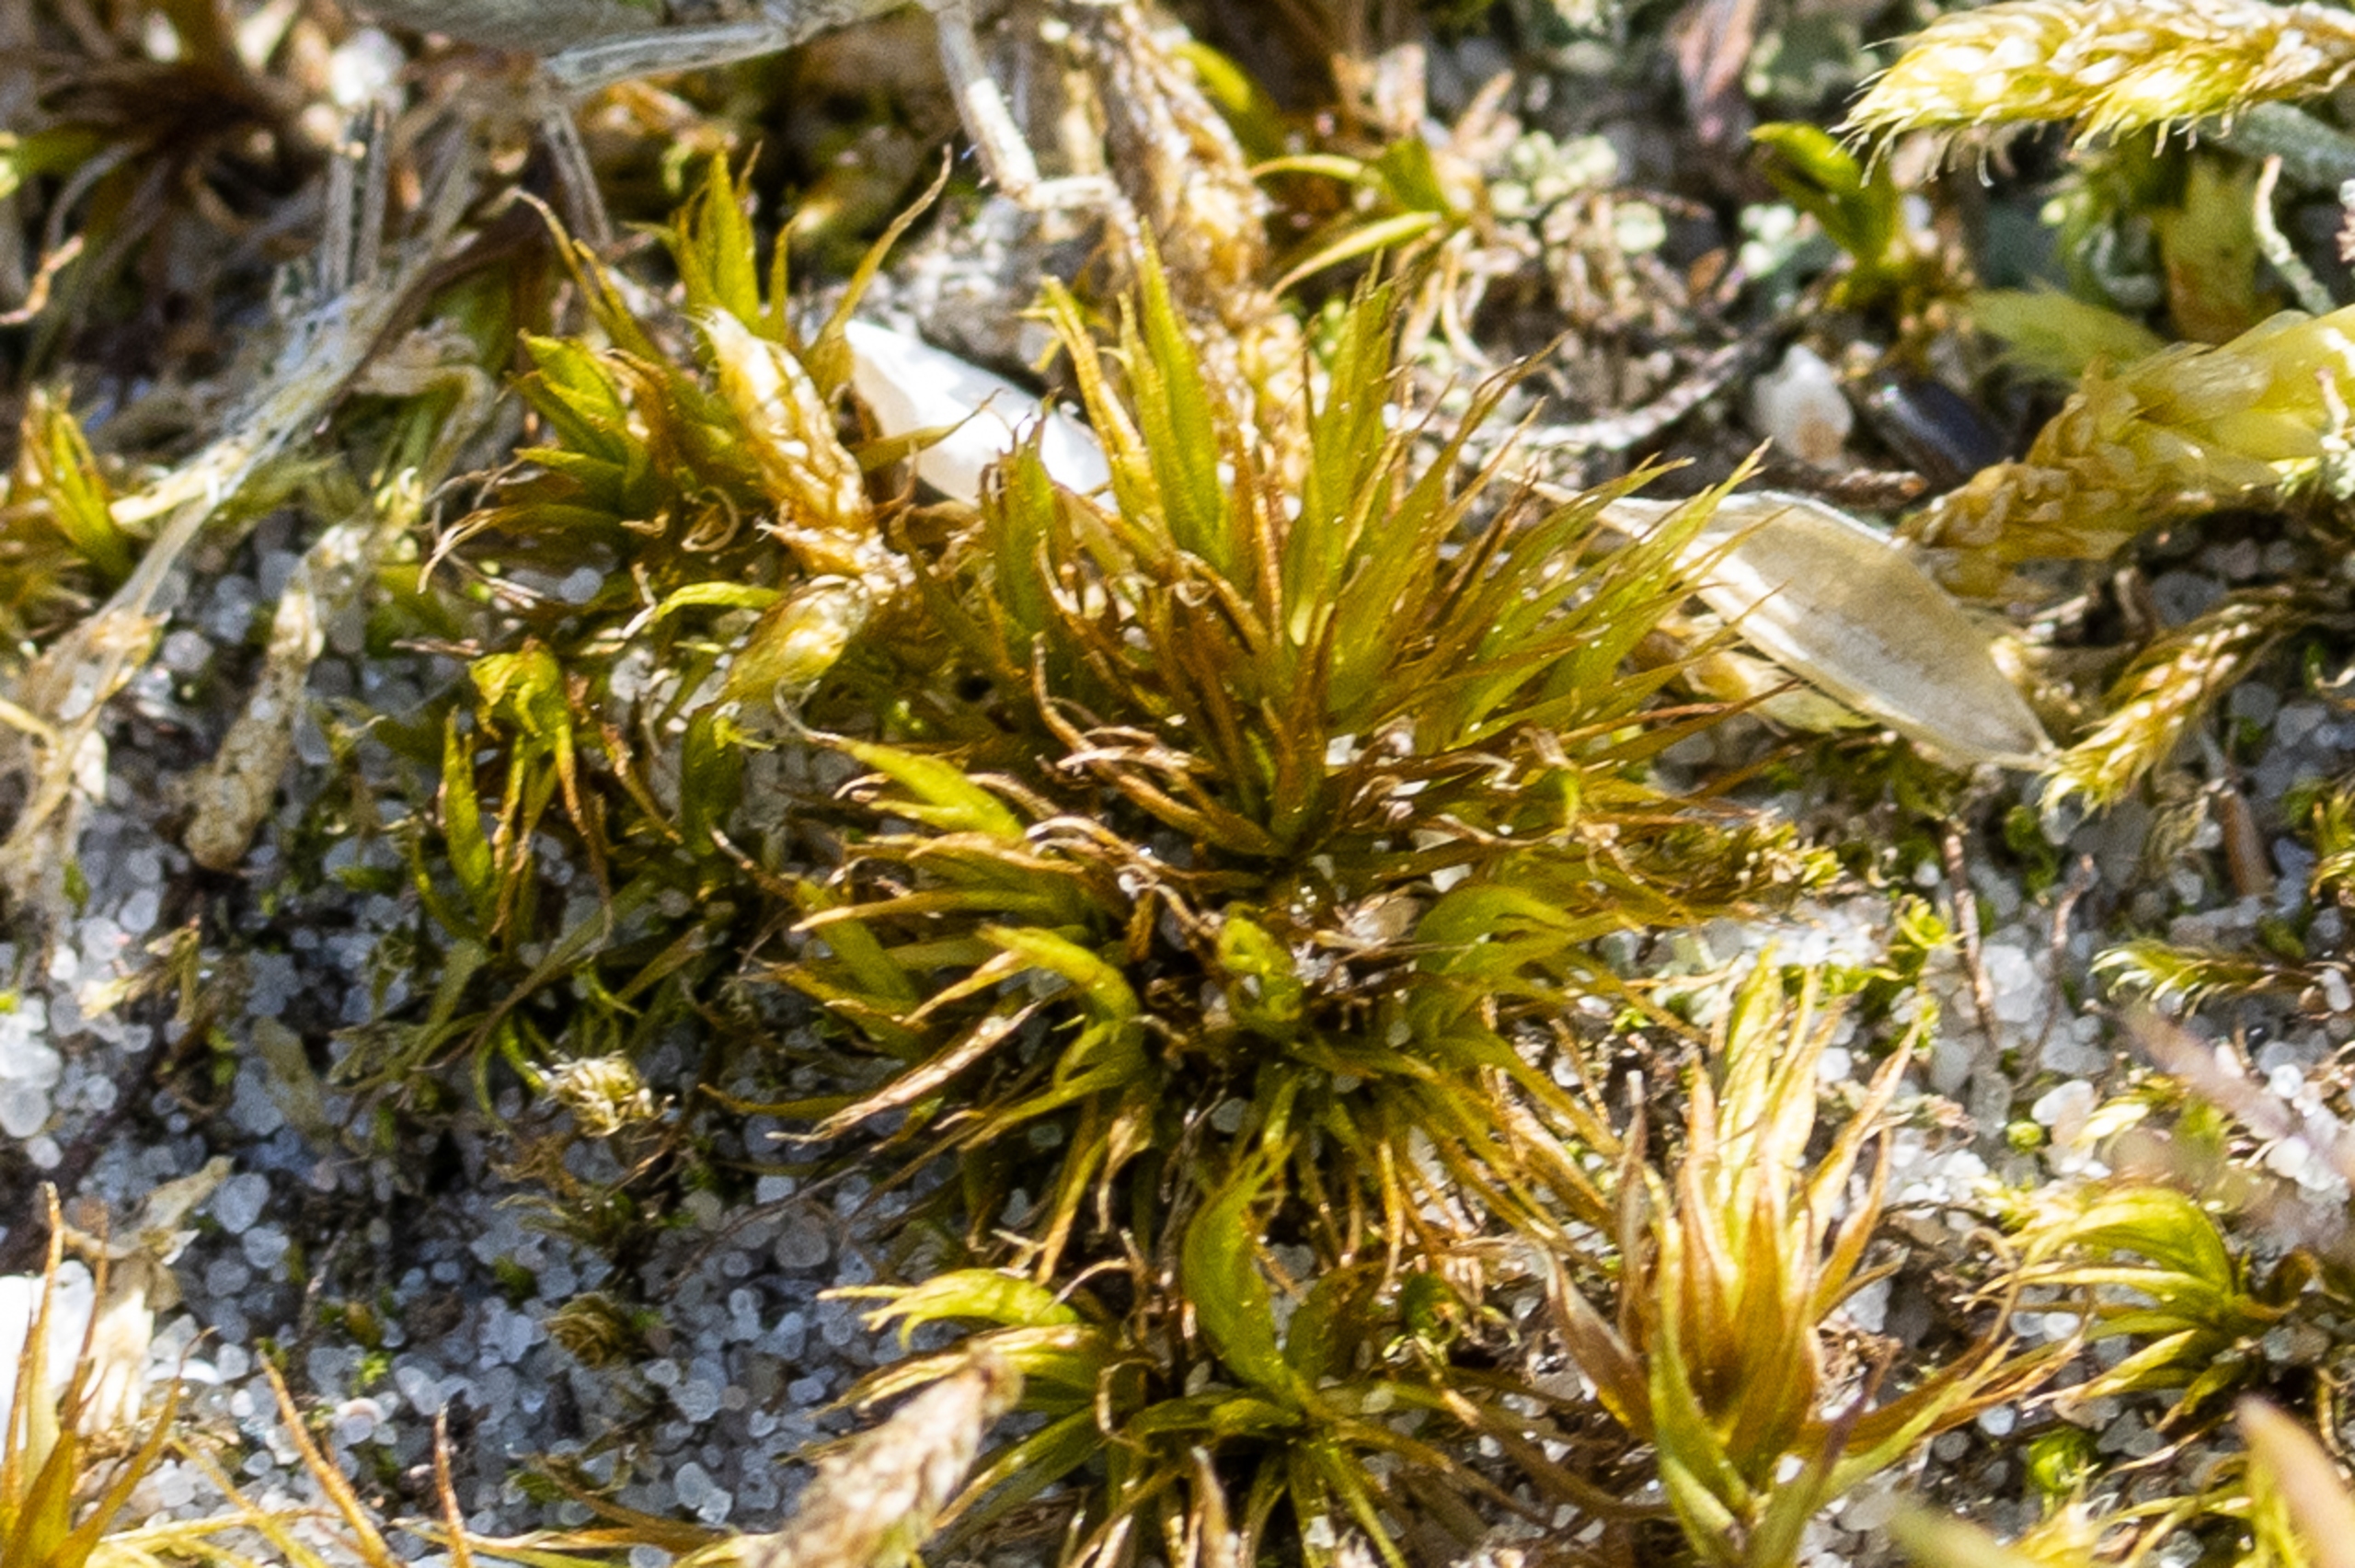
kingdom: Plantae
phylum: Bryophyta
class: Bryopsida
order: Dicranales
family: Dicranaceae
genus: Dicranum
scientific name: Dicranum
